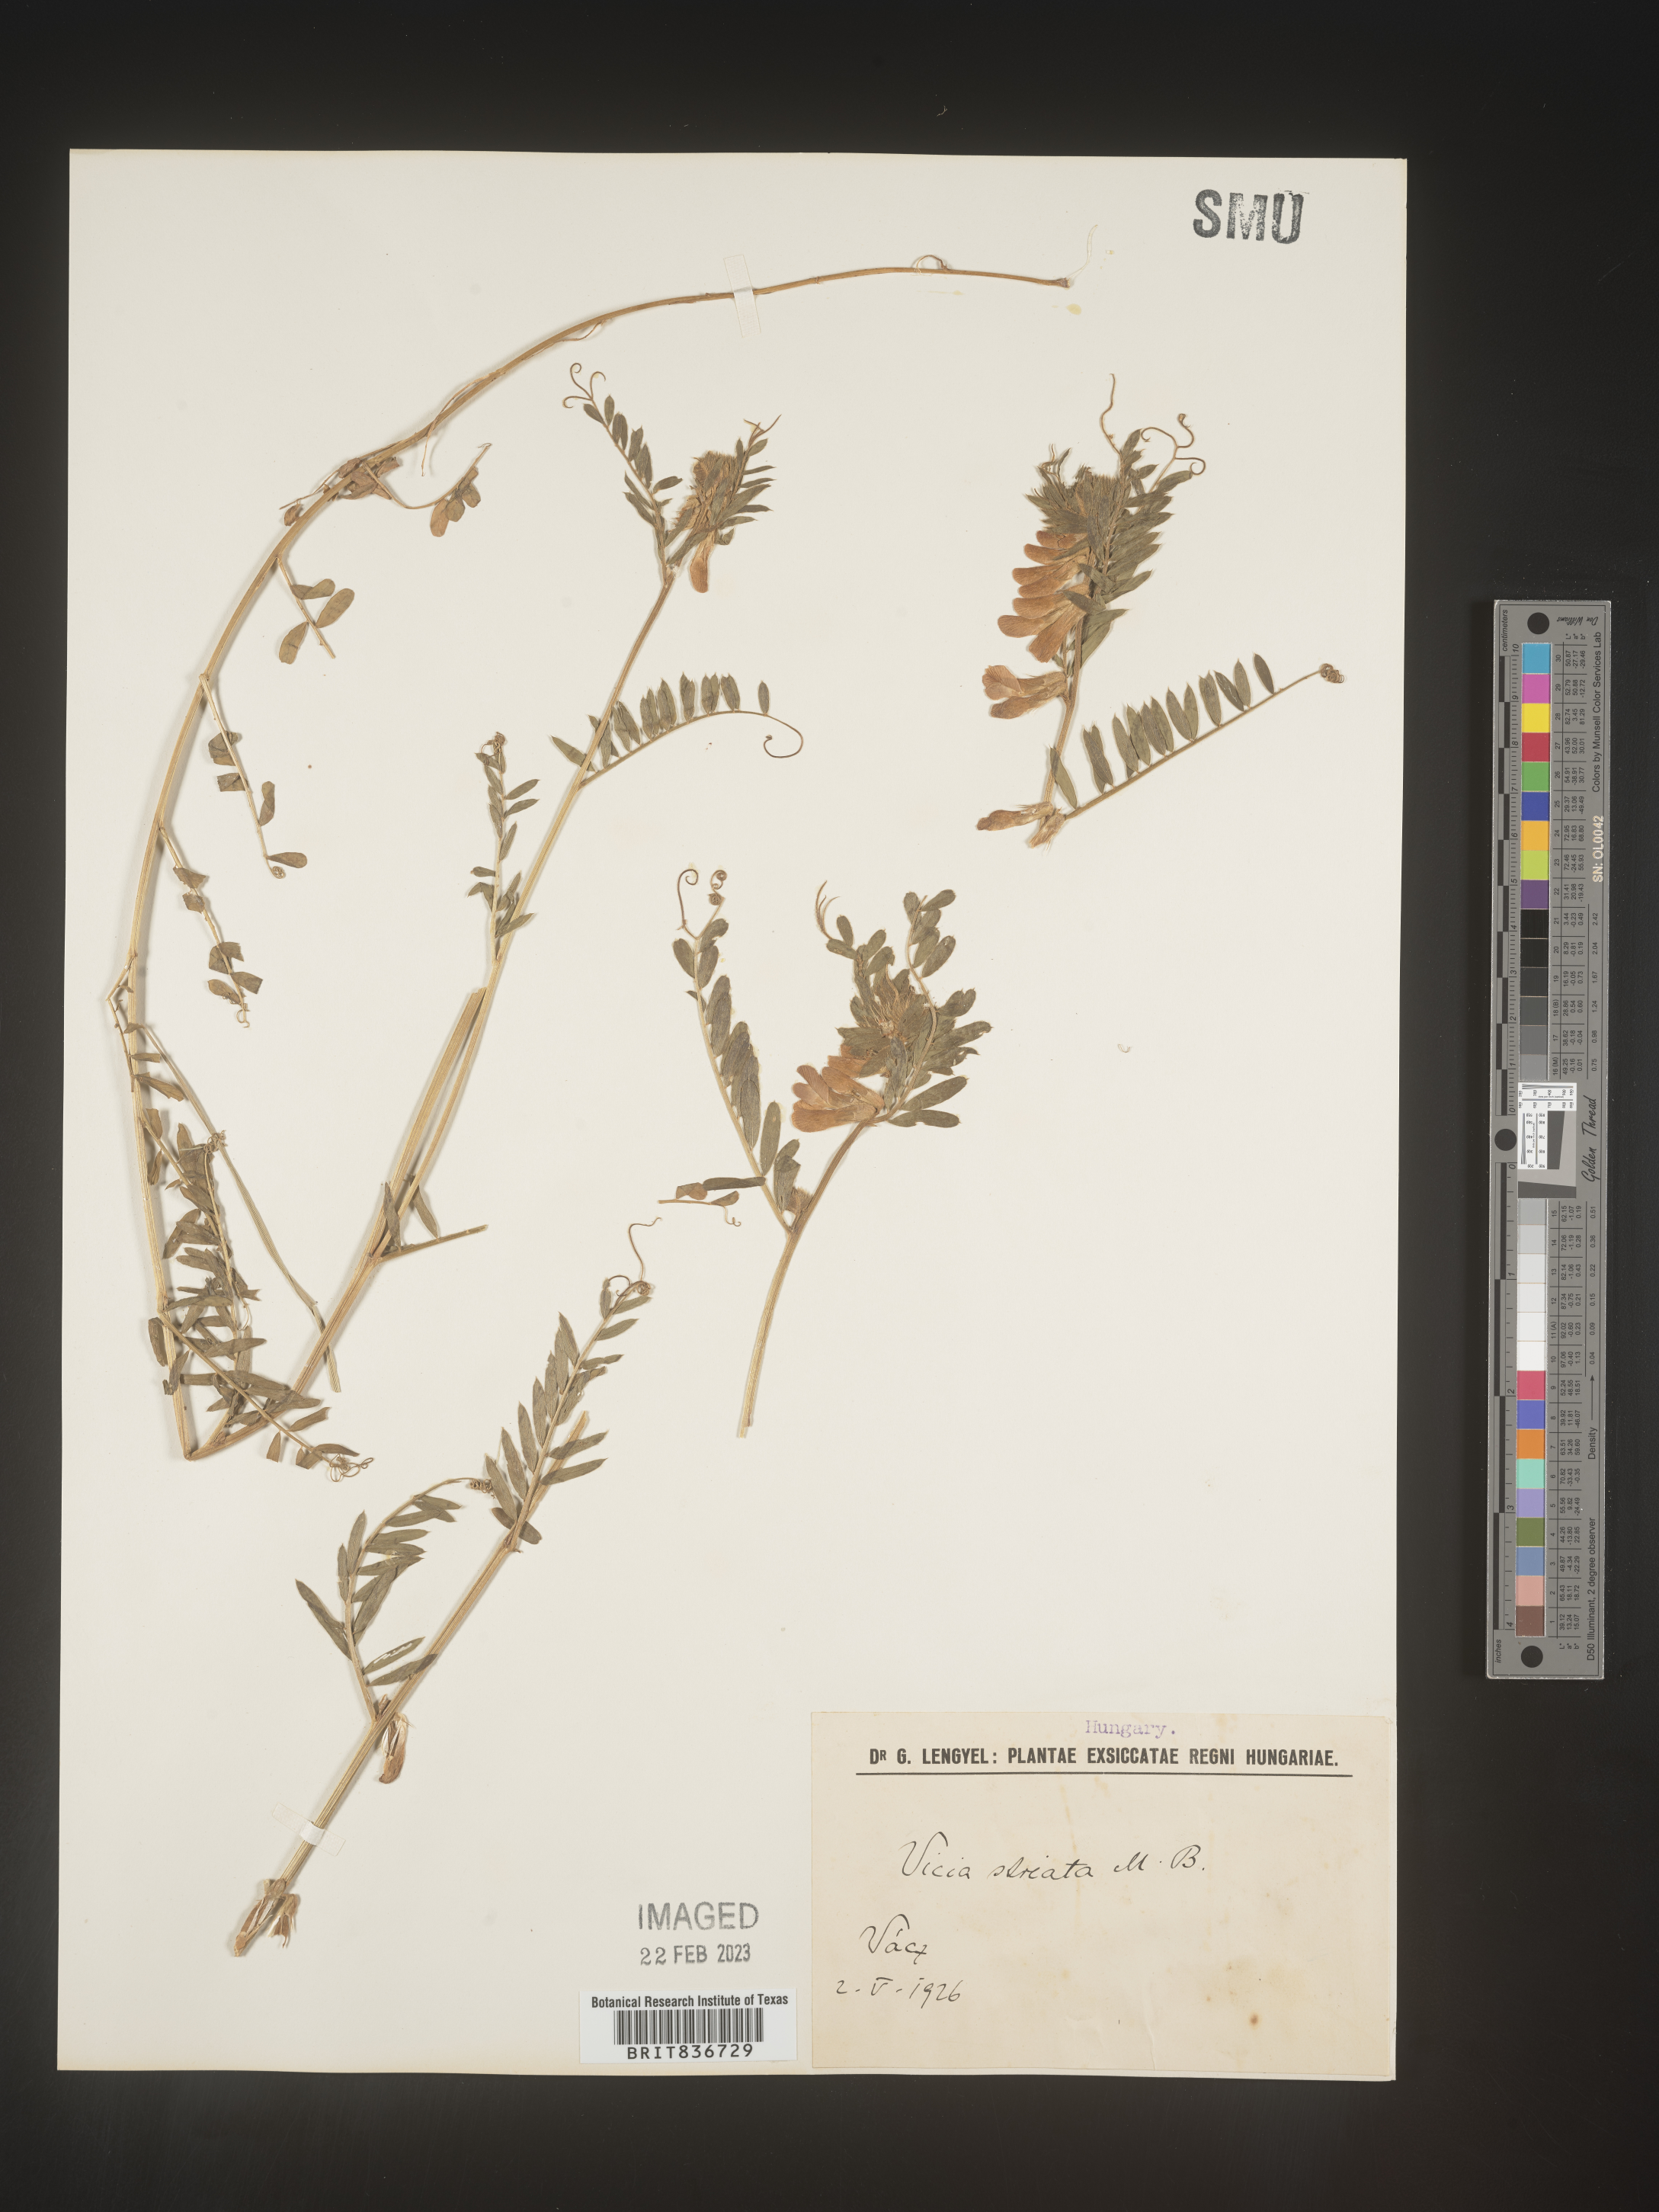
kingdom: Plantae
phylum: Tracheophyta
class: Magnoliopsida
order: Fabales
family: Fabaceae
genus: Vicia
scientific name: Vicia
